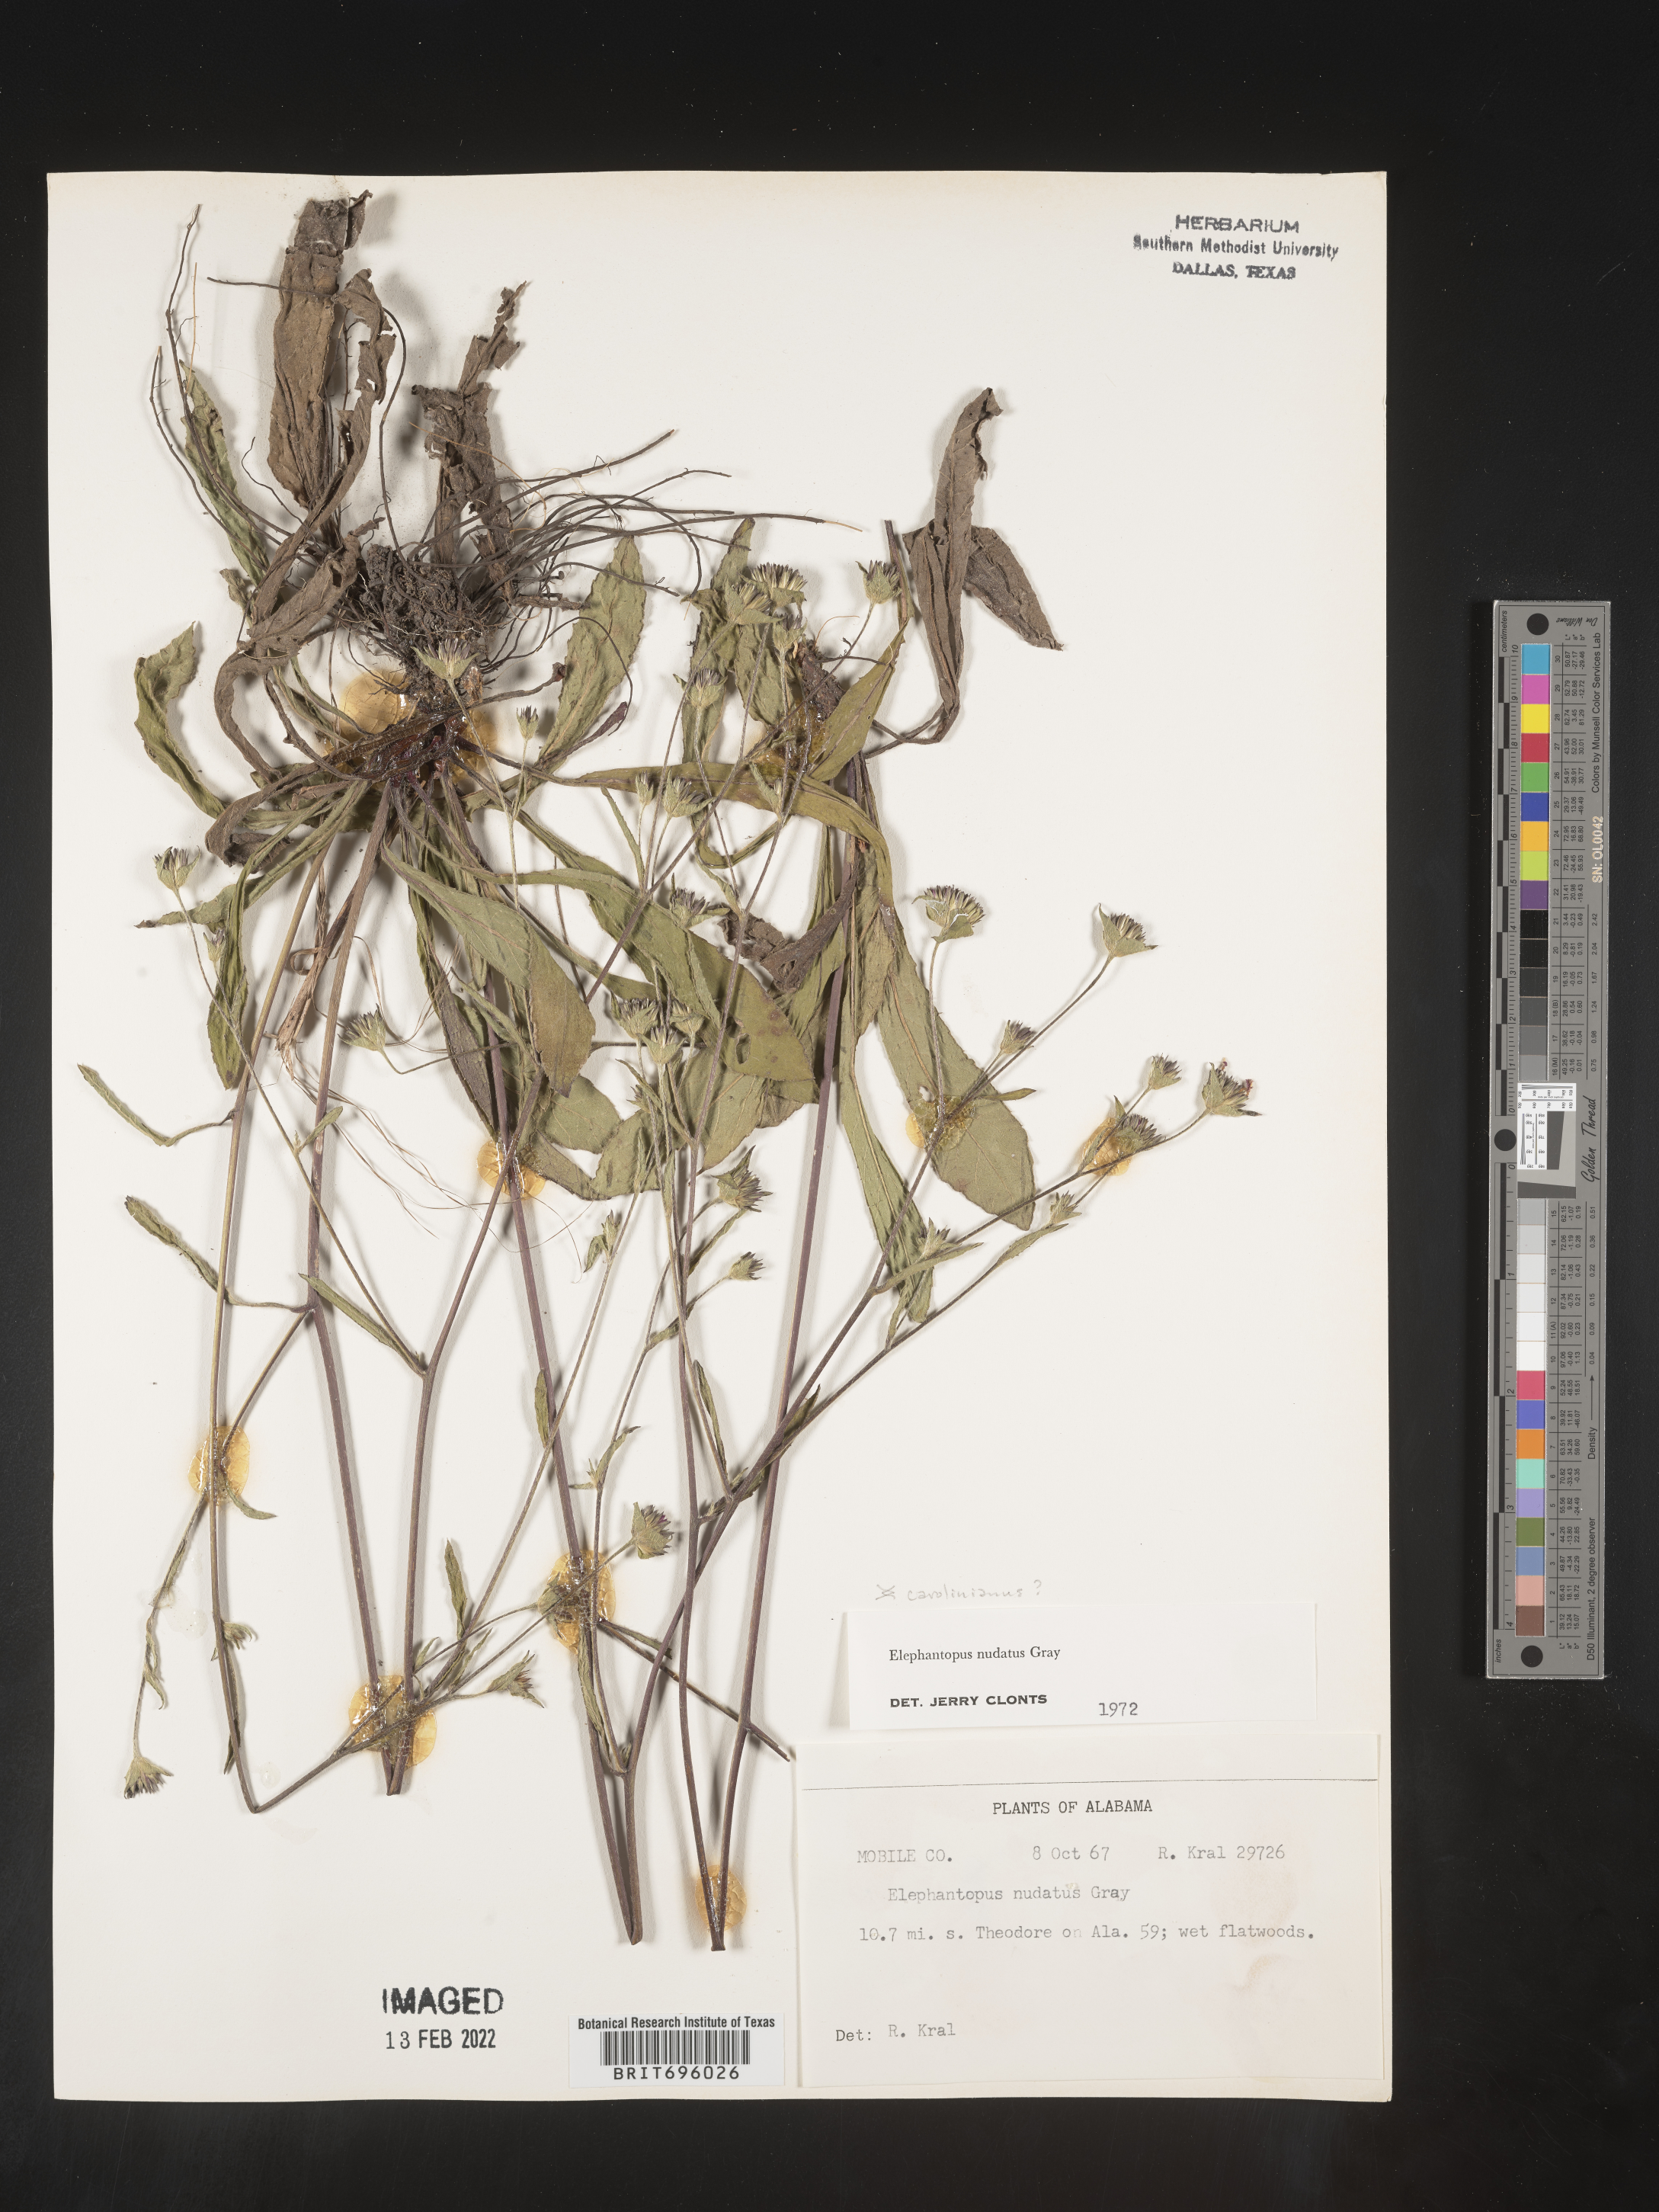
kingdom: Plantae
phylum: Tracheophyta
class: Magnoliopsida
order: Asterales
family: Asteraceae
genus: Elephantopus
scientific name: Elephantopus nudatus
